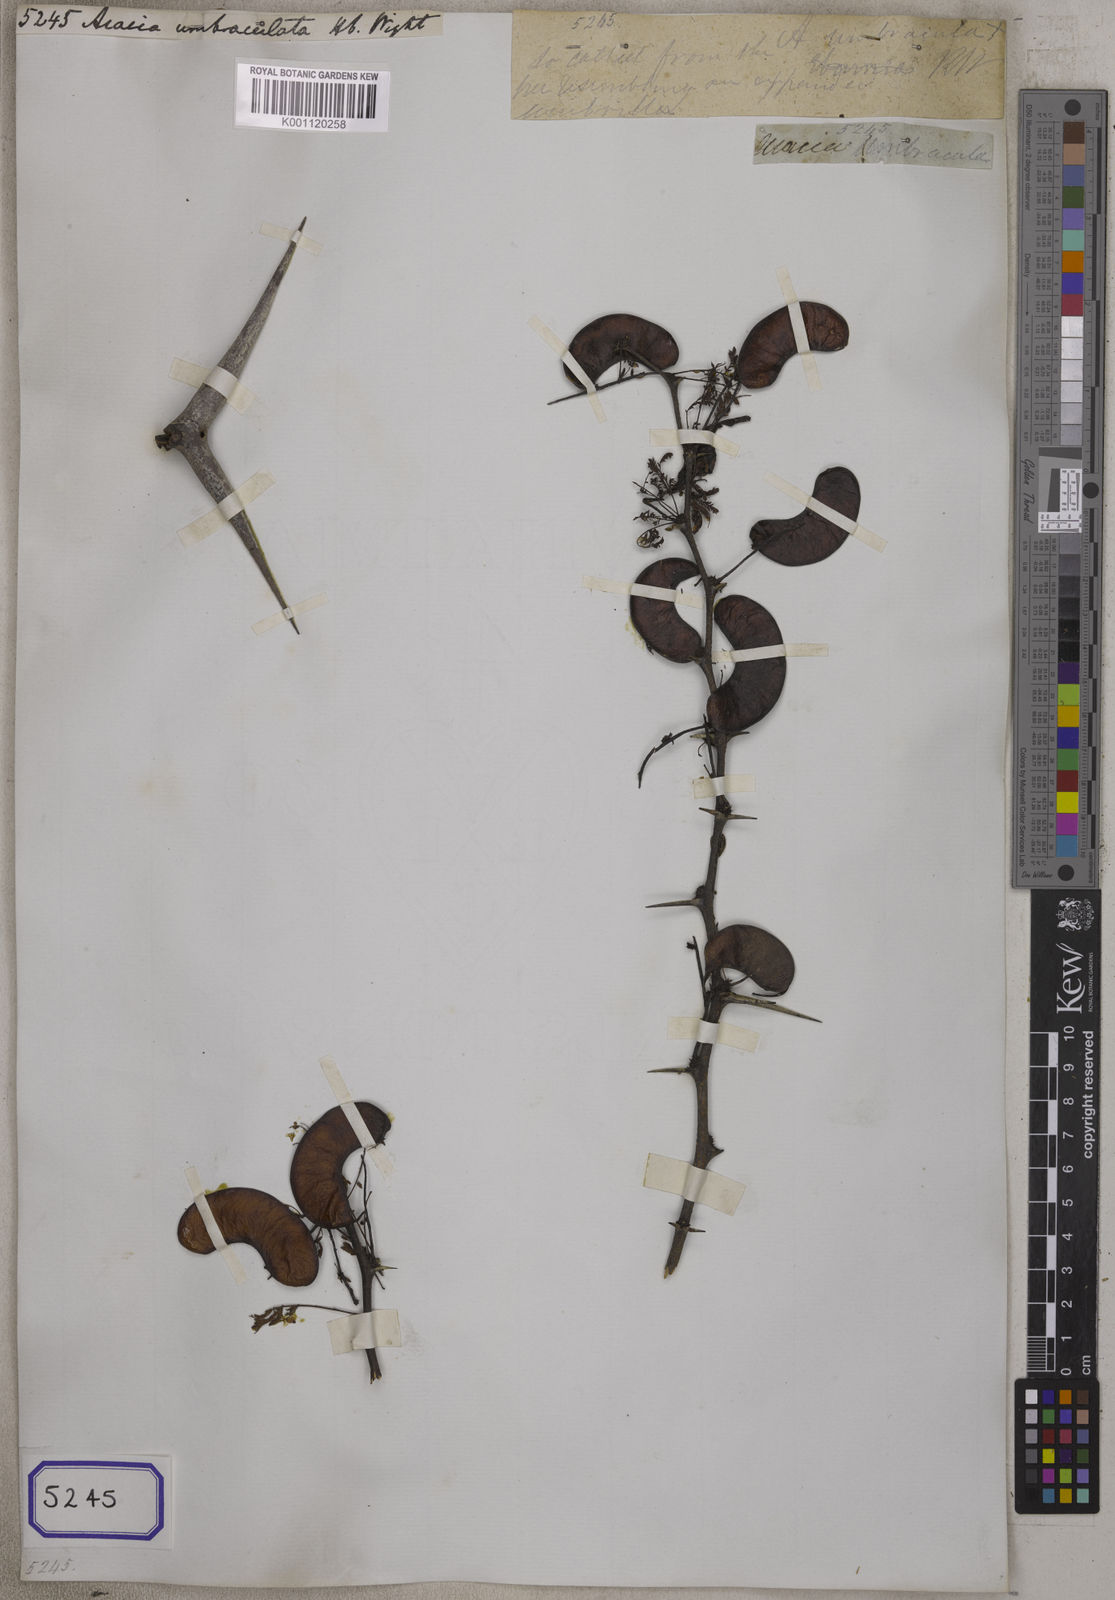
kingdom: Plantae
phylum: Tracheophyta
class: Magnoliopsida
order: Fabales
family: Fabaceae
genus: Vachellia
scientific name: Vachellia horrida
